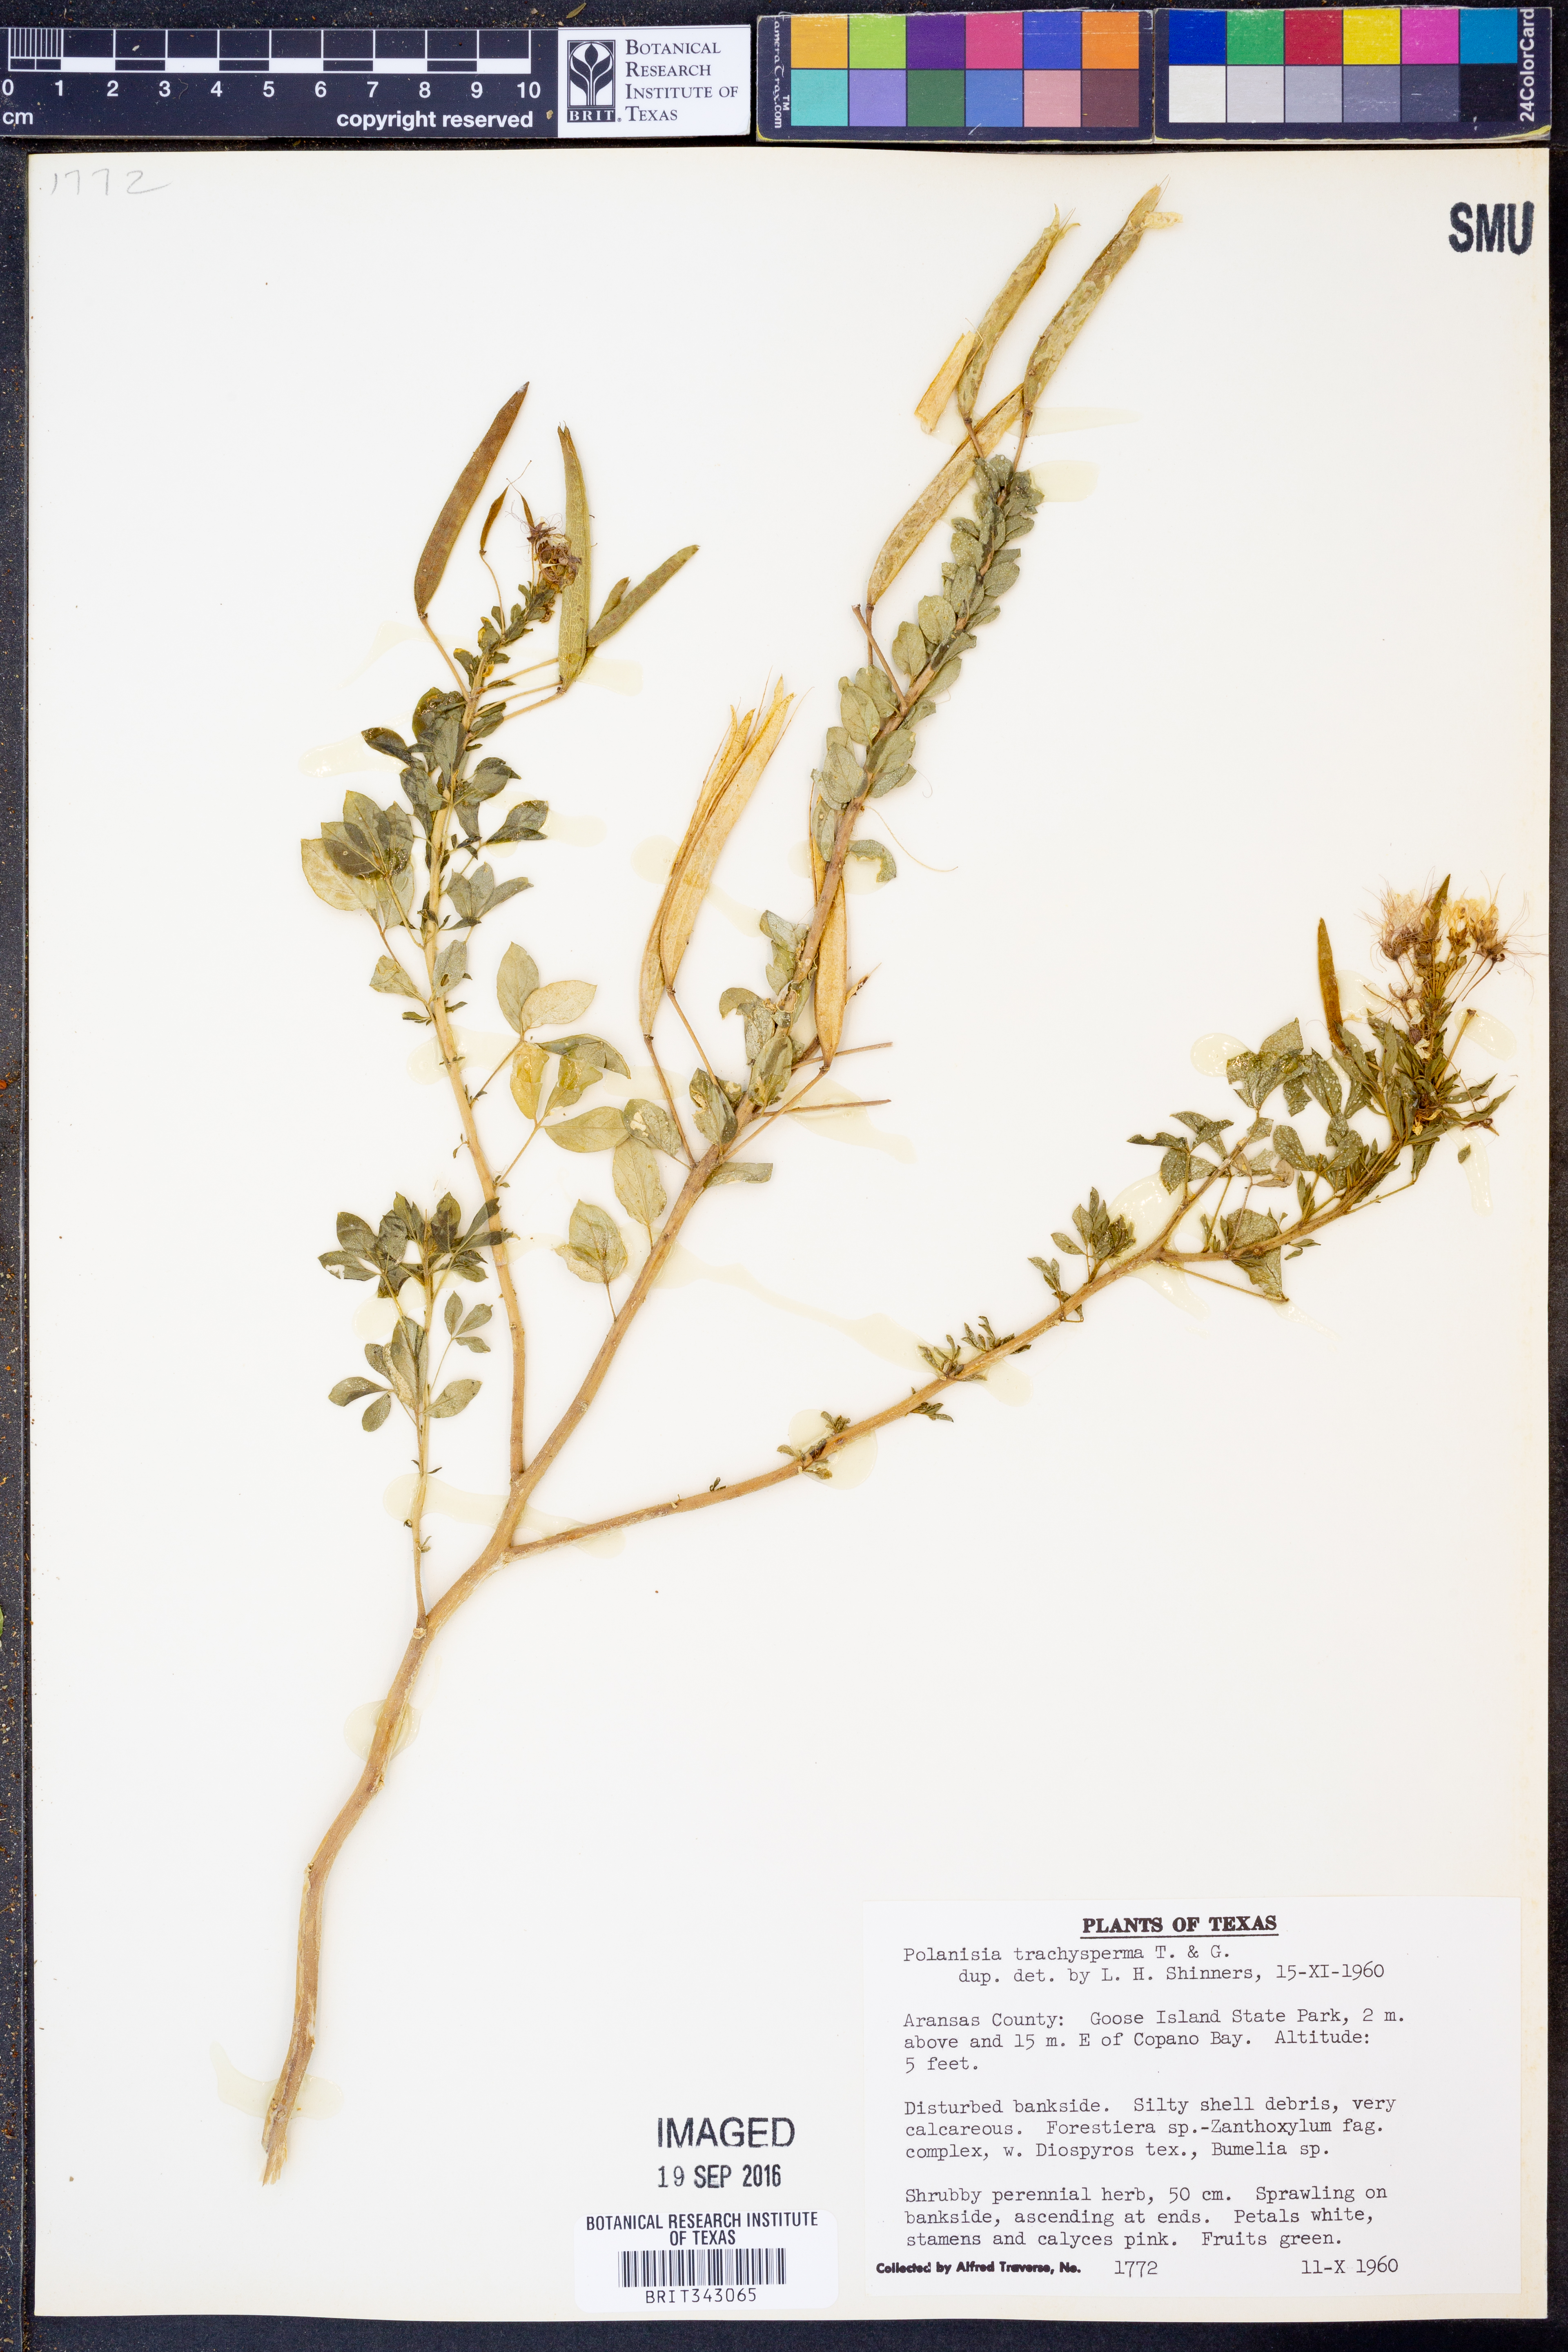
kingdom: Plantae
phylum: Tracheophyta
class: Magnoliopsida
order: Brassicales
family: Cleomaceae
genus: Polanisia
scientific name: Polanisia trachysperma
